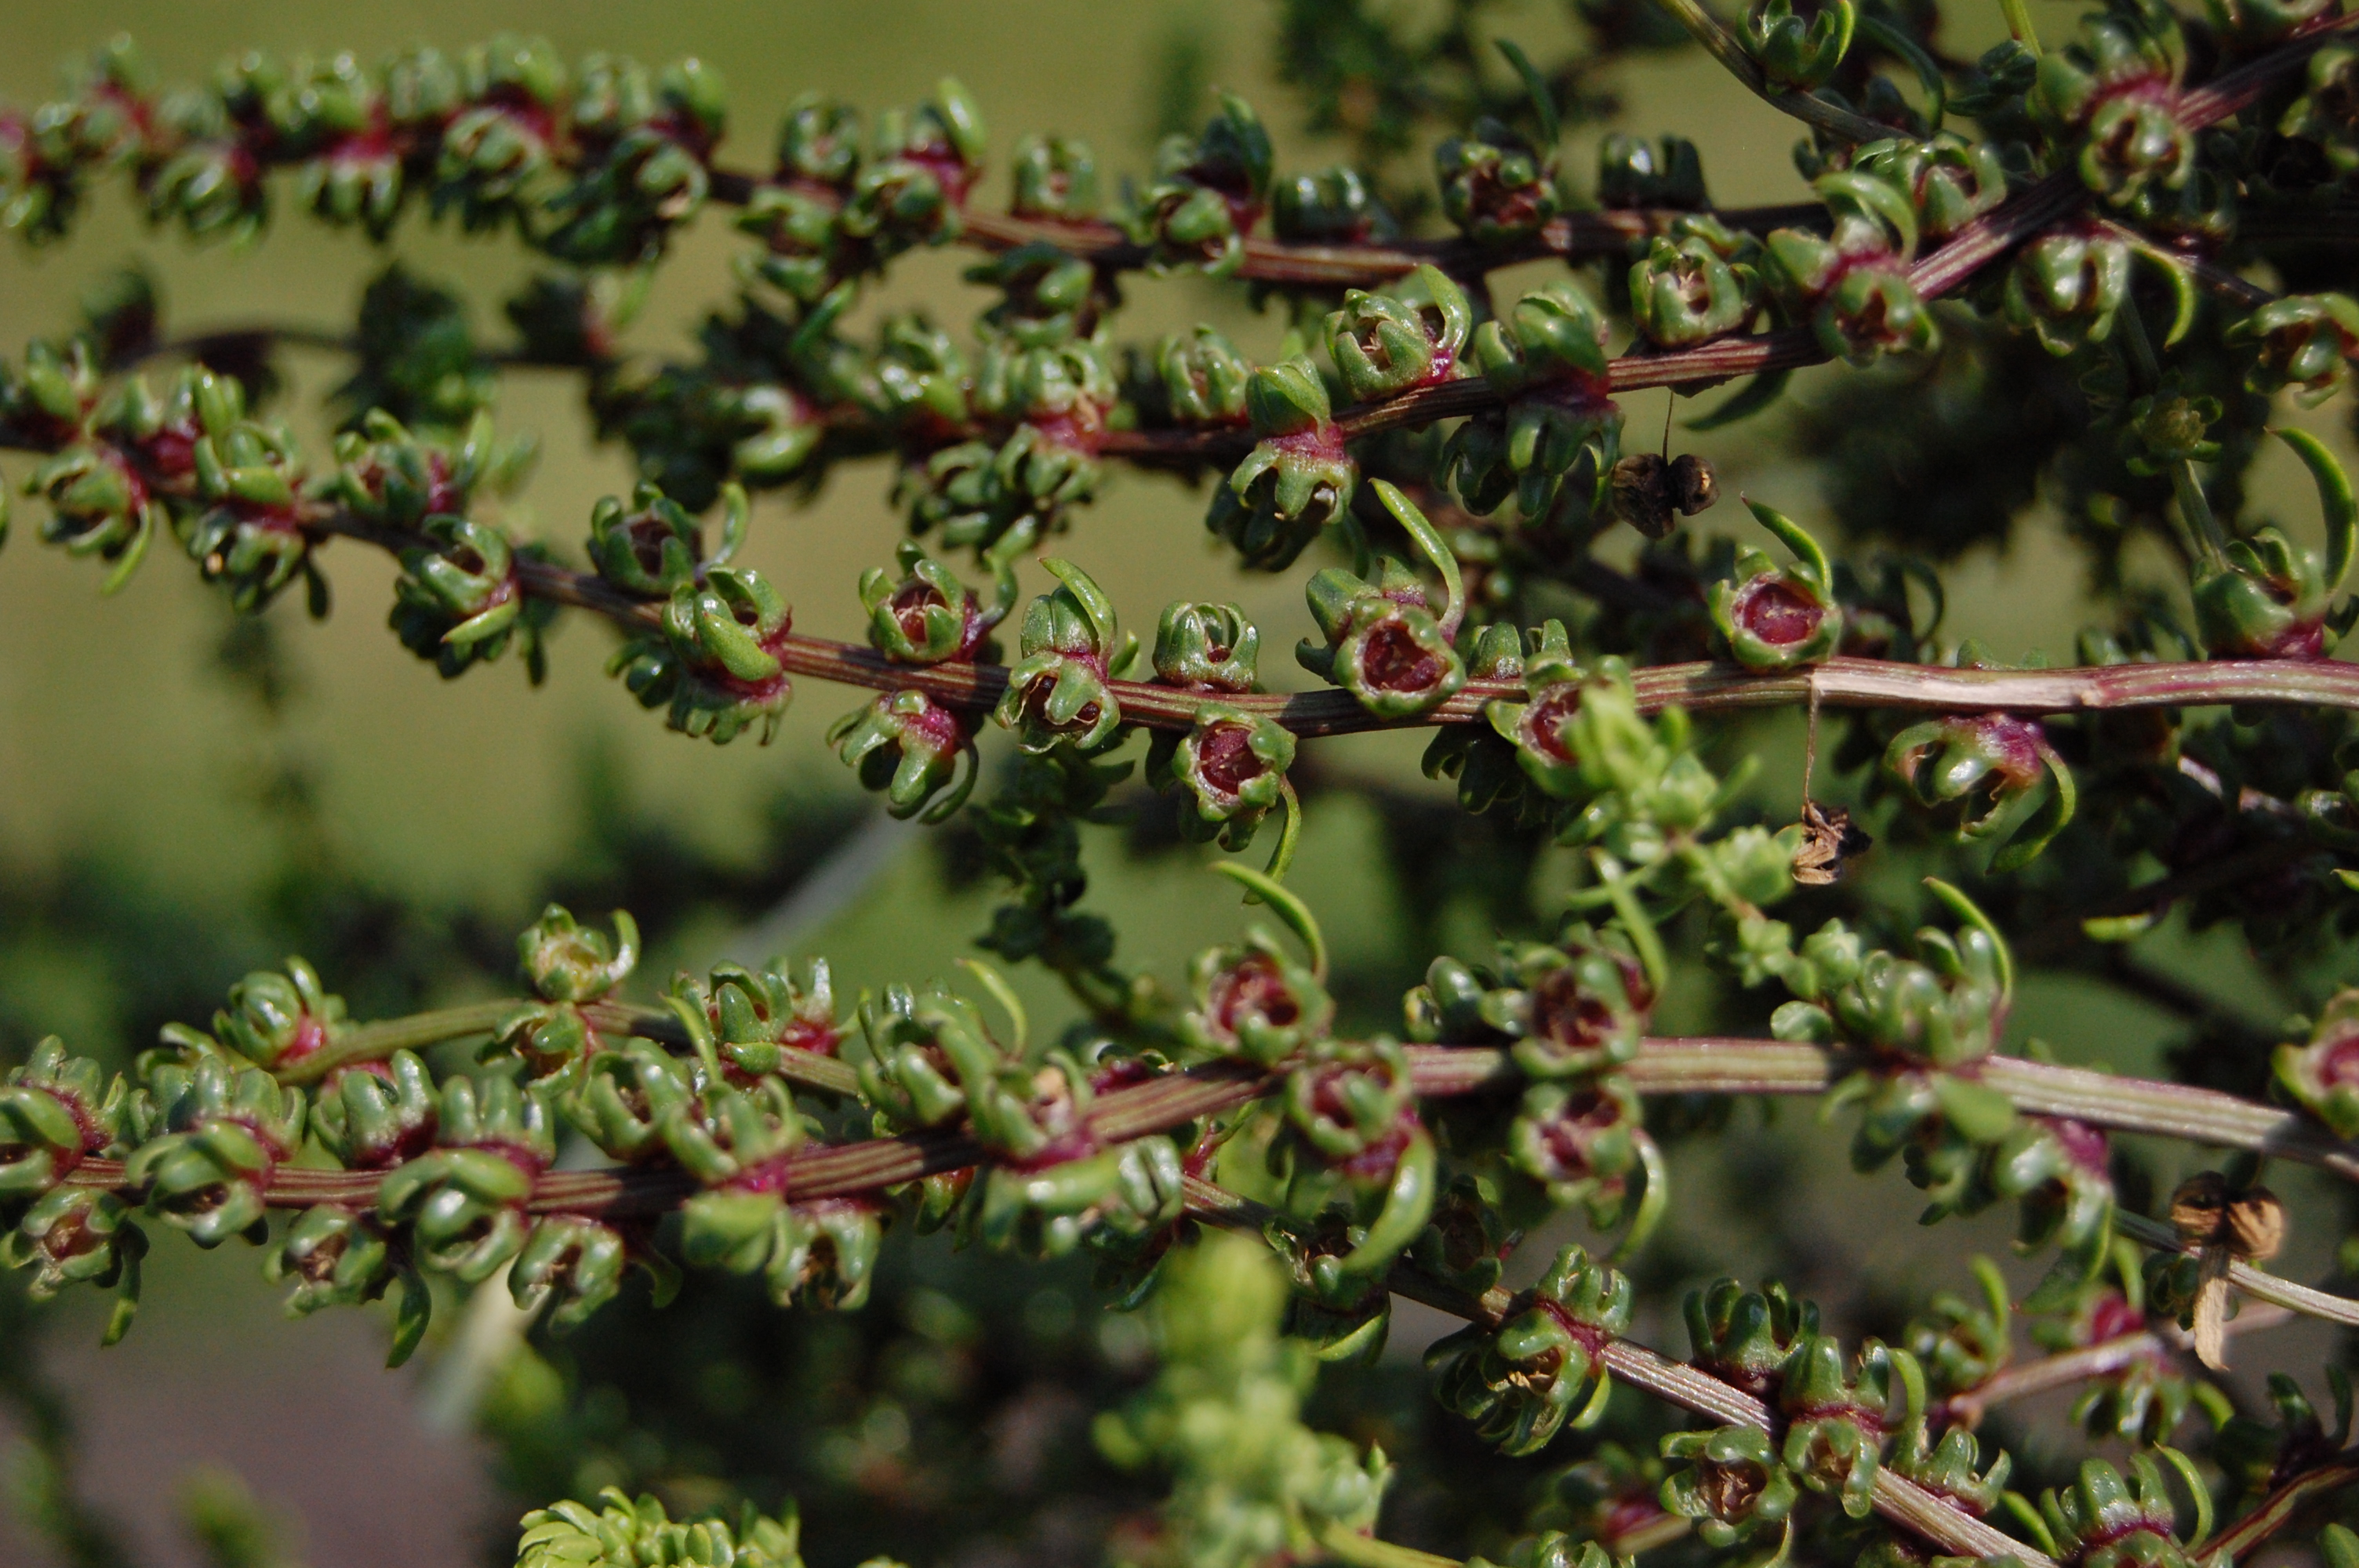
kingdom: Plantae
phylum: Tracheophyta
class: Magnoliopsida
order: Caryophyllales
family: Amaranthaceae
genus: Beta
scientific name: Beta vulgaris
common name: Beet
